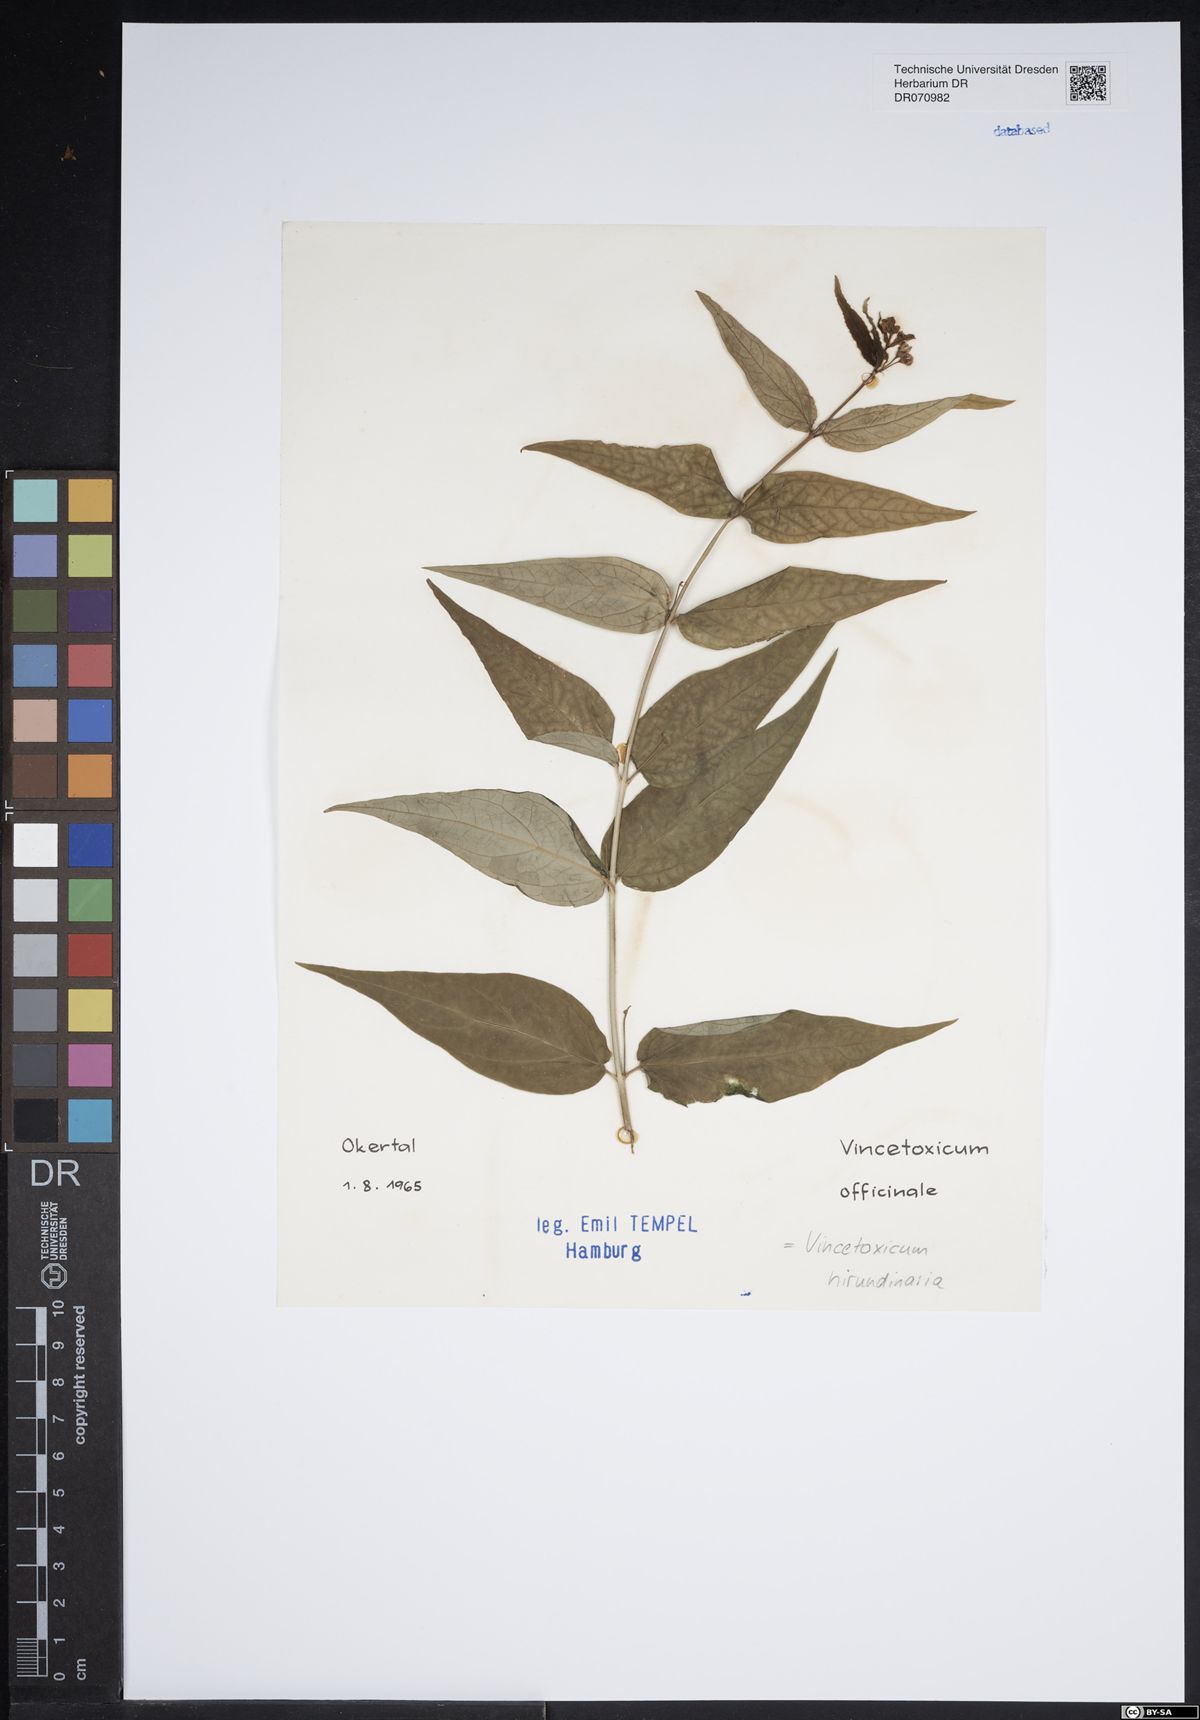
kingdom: Plantae
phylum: Tracheophyta
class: Magnoliopsida
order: Gentianales
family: Apocynaceae
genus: Vincetoxicum
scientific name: Vincetoxicum hirundinaria
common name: White swallowwort
